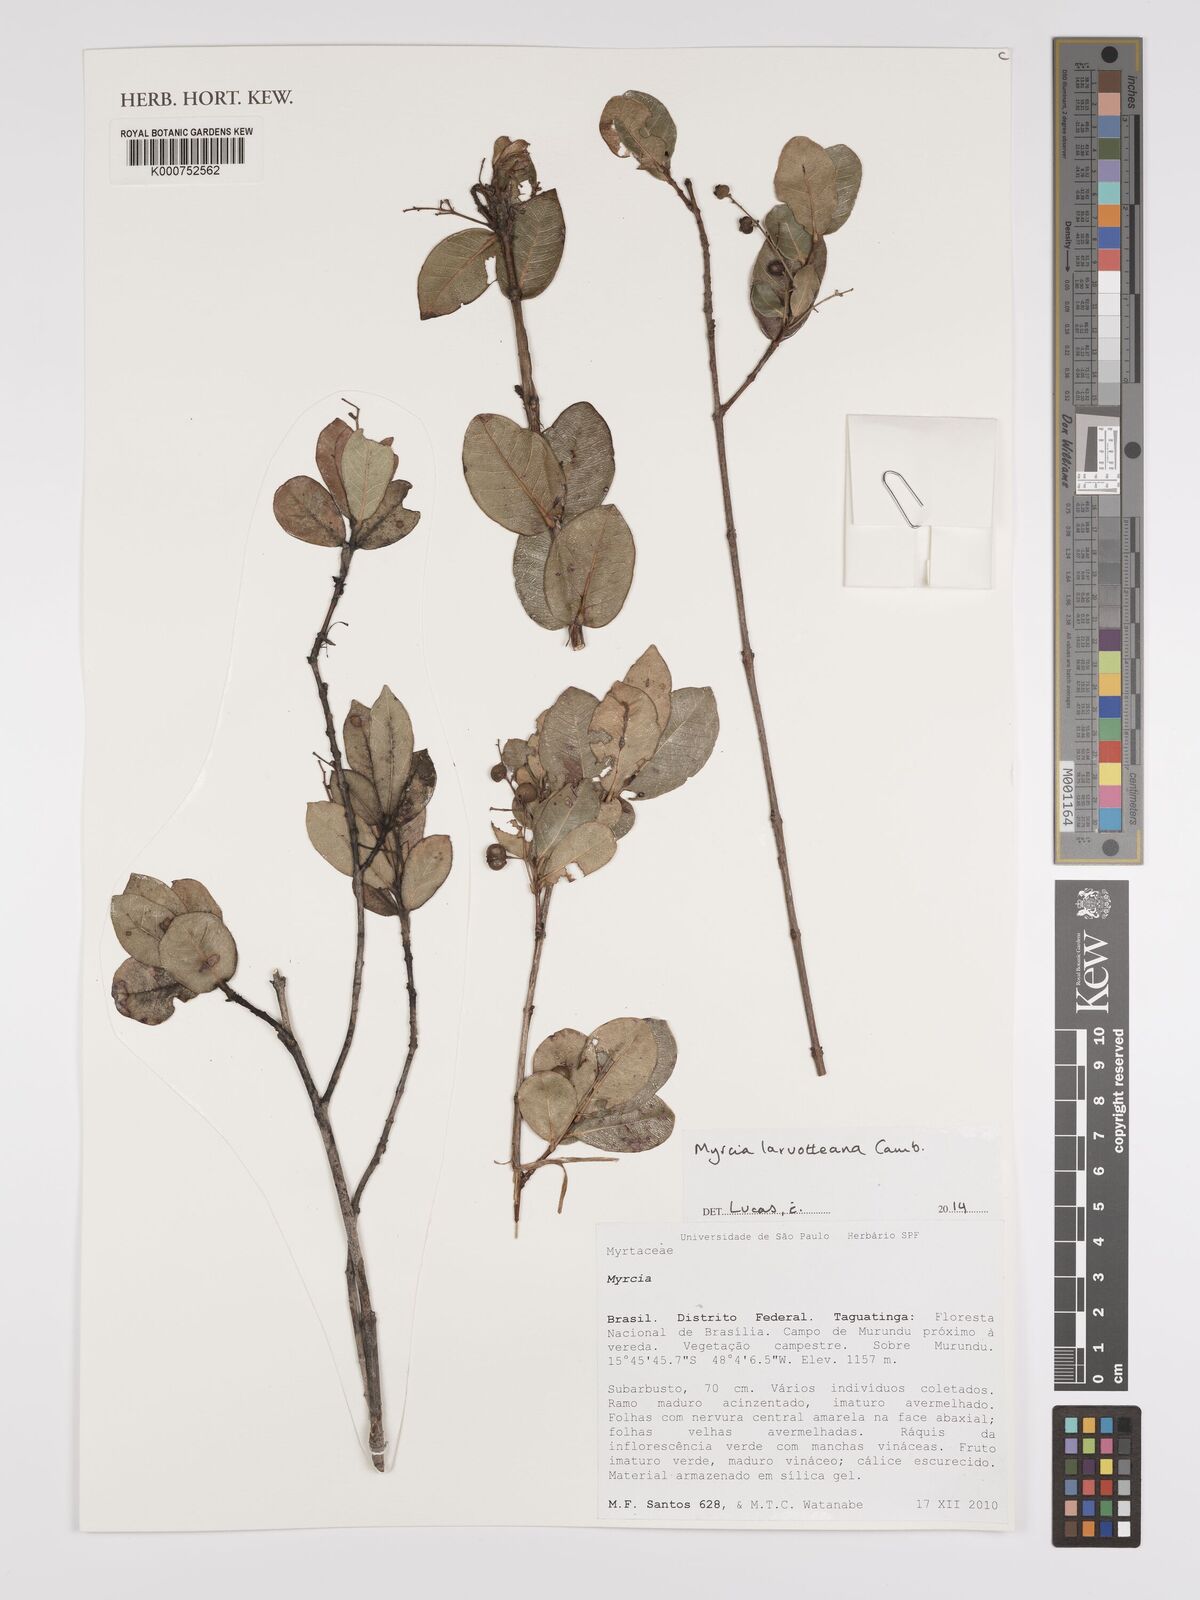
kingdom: Plantae
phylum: Tracheophyta
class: Magnoliopsida
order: Myrtales
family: Myrtaceae
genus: Myrcia
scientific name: Myrcia laruotteana
